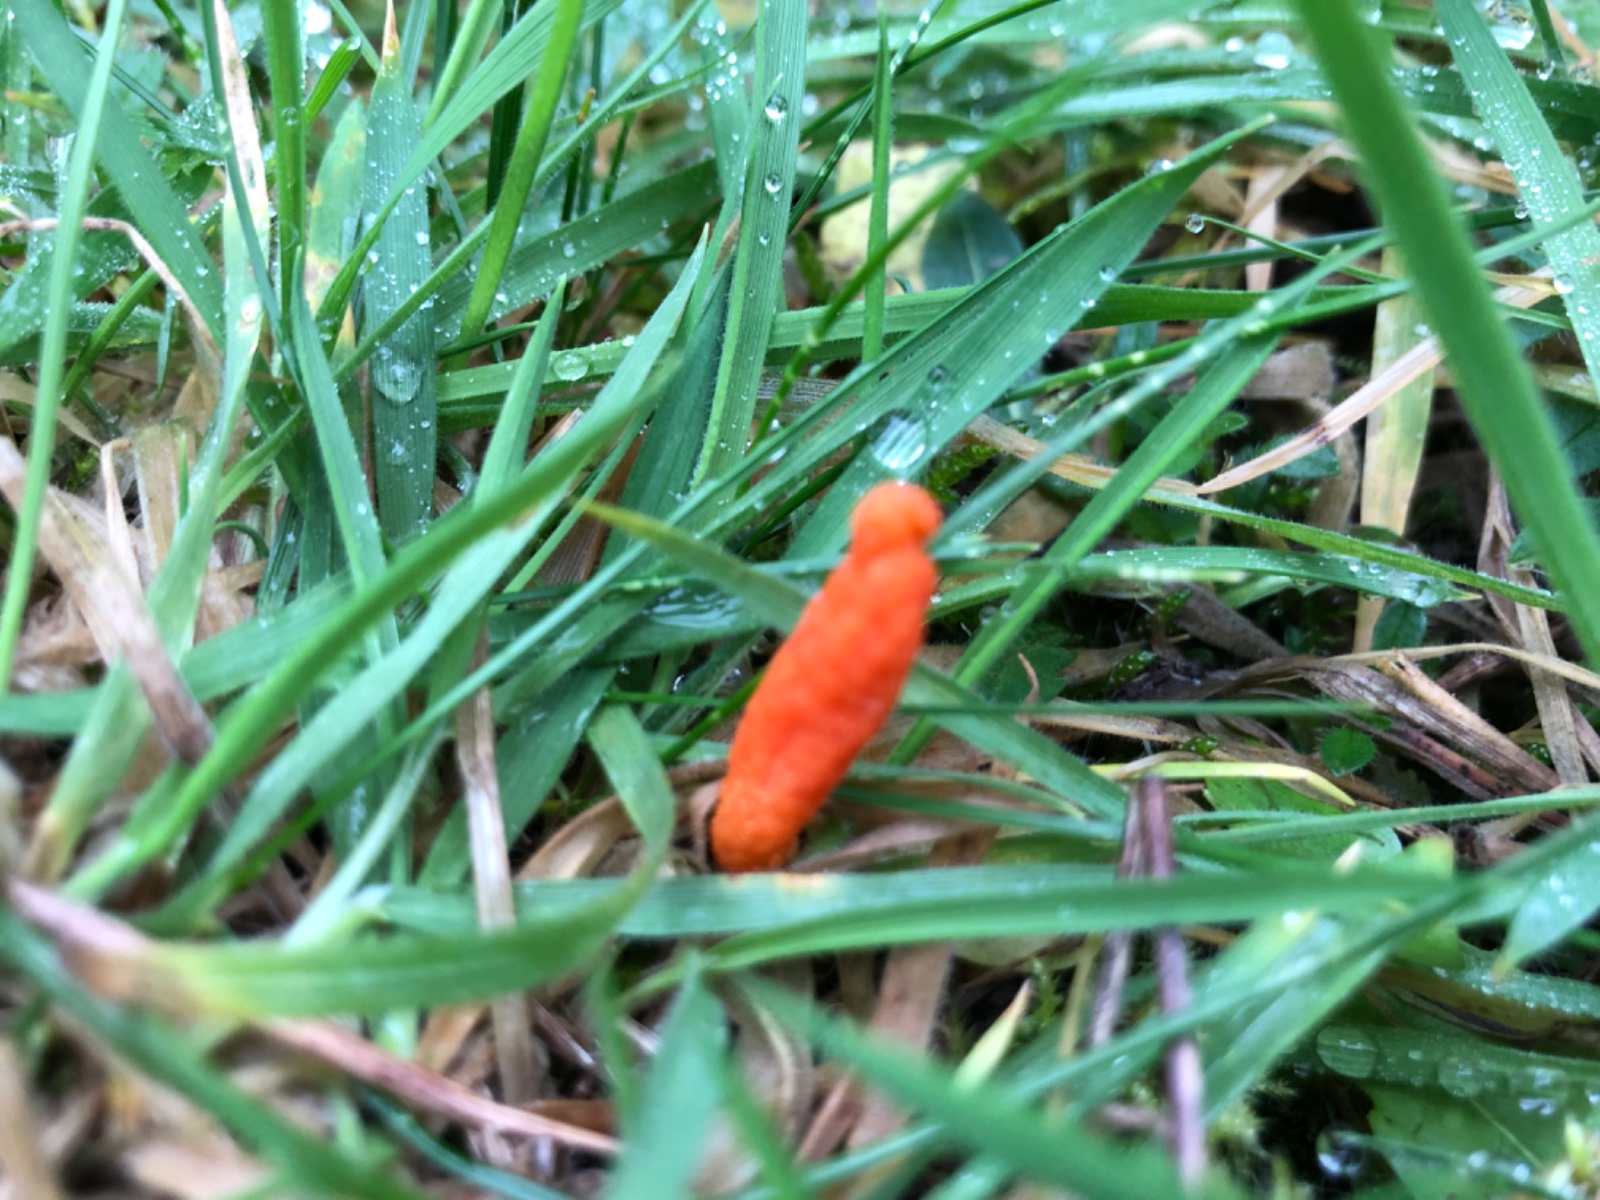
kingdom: Fungi
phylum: Ascomycota
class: Sordariomycetes
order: Hypocreales
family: Cordycipitaceae
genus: Cordyceps
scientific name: Cordyceps militaris
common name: puppe-snyltekølle
